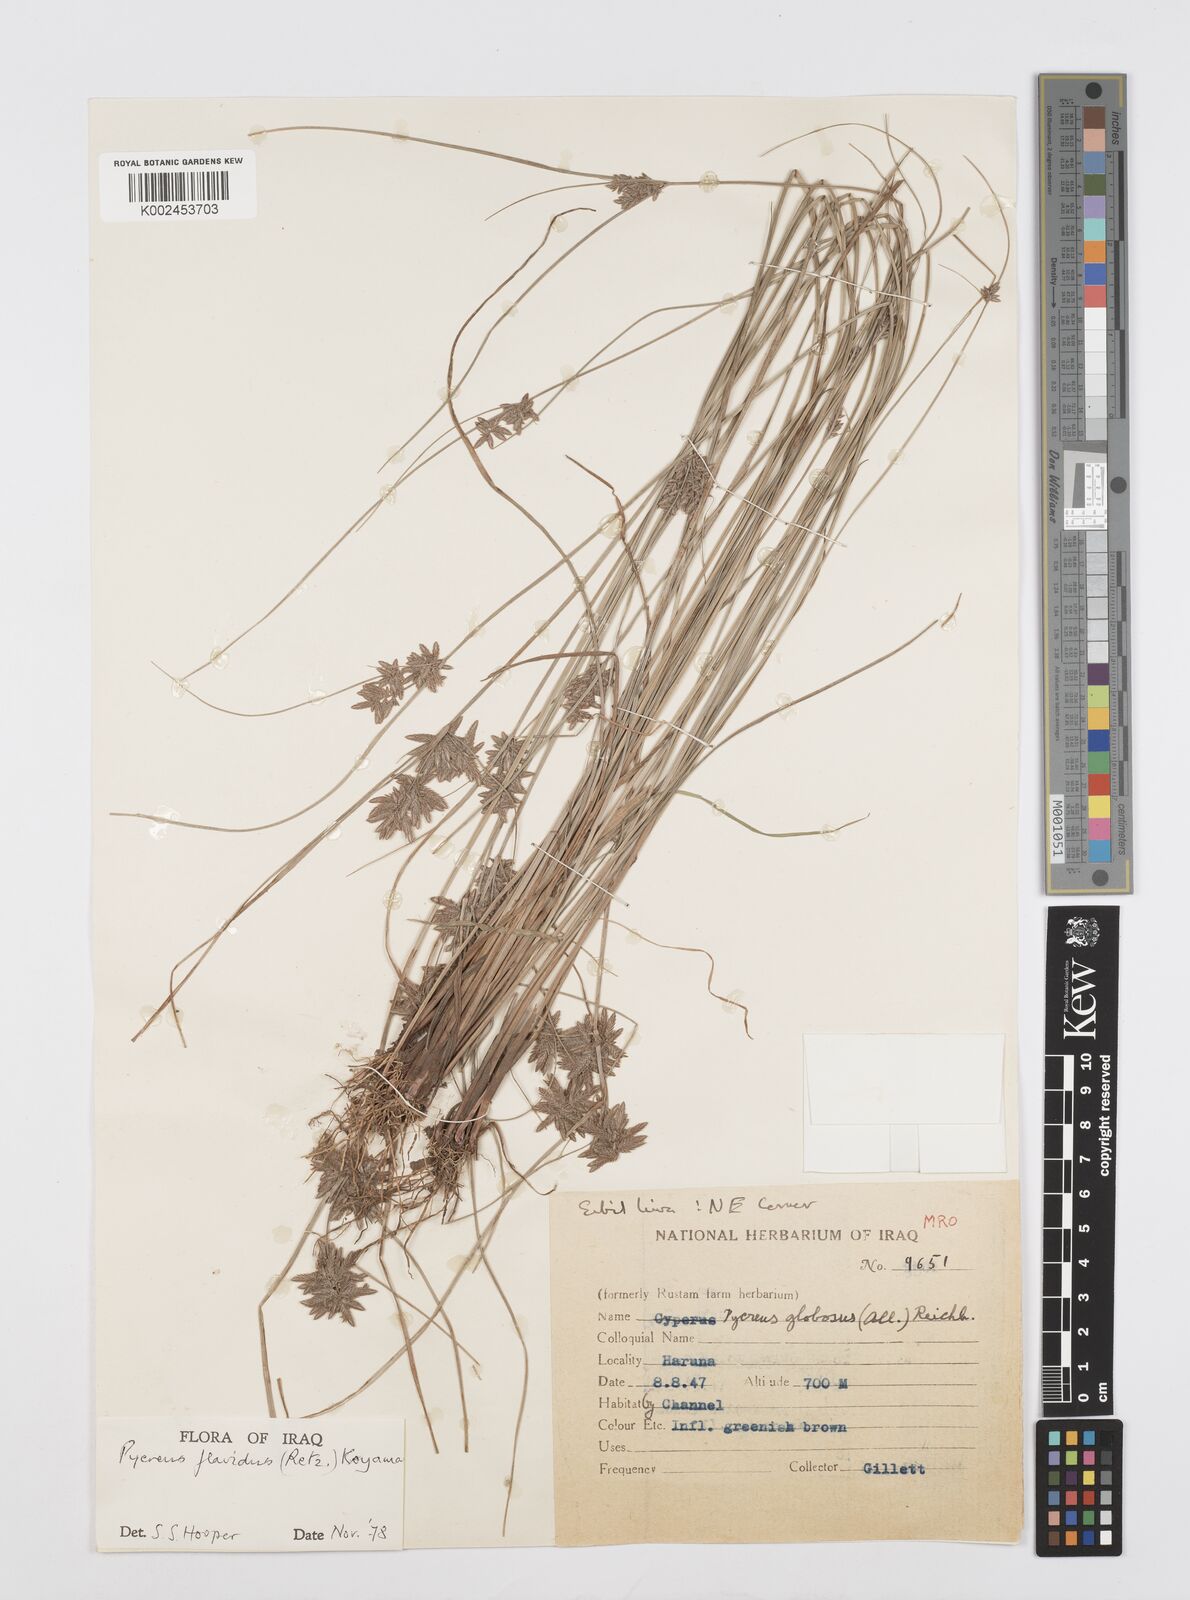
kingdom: Plantae
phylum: Tracheophyta
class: Liliopsida
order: Poales
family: Cyperaceae
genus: Cyperus
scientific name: Cyperus flavidus
